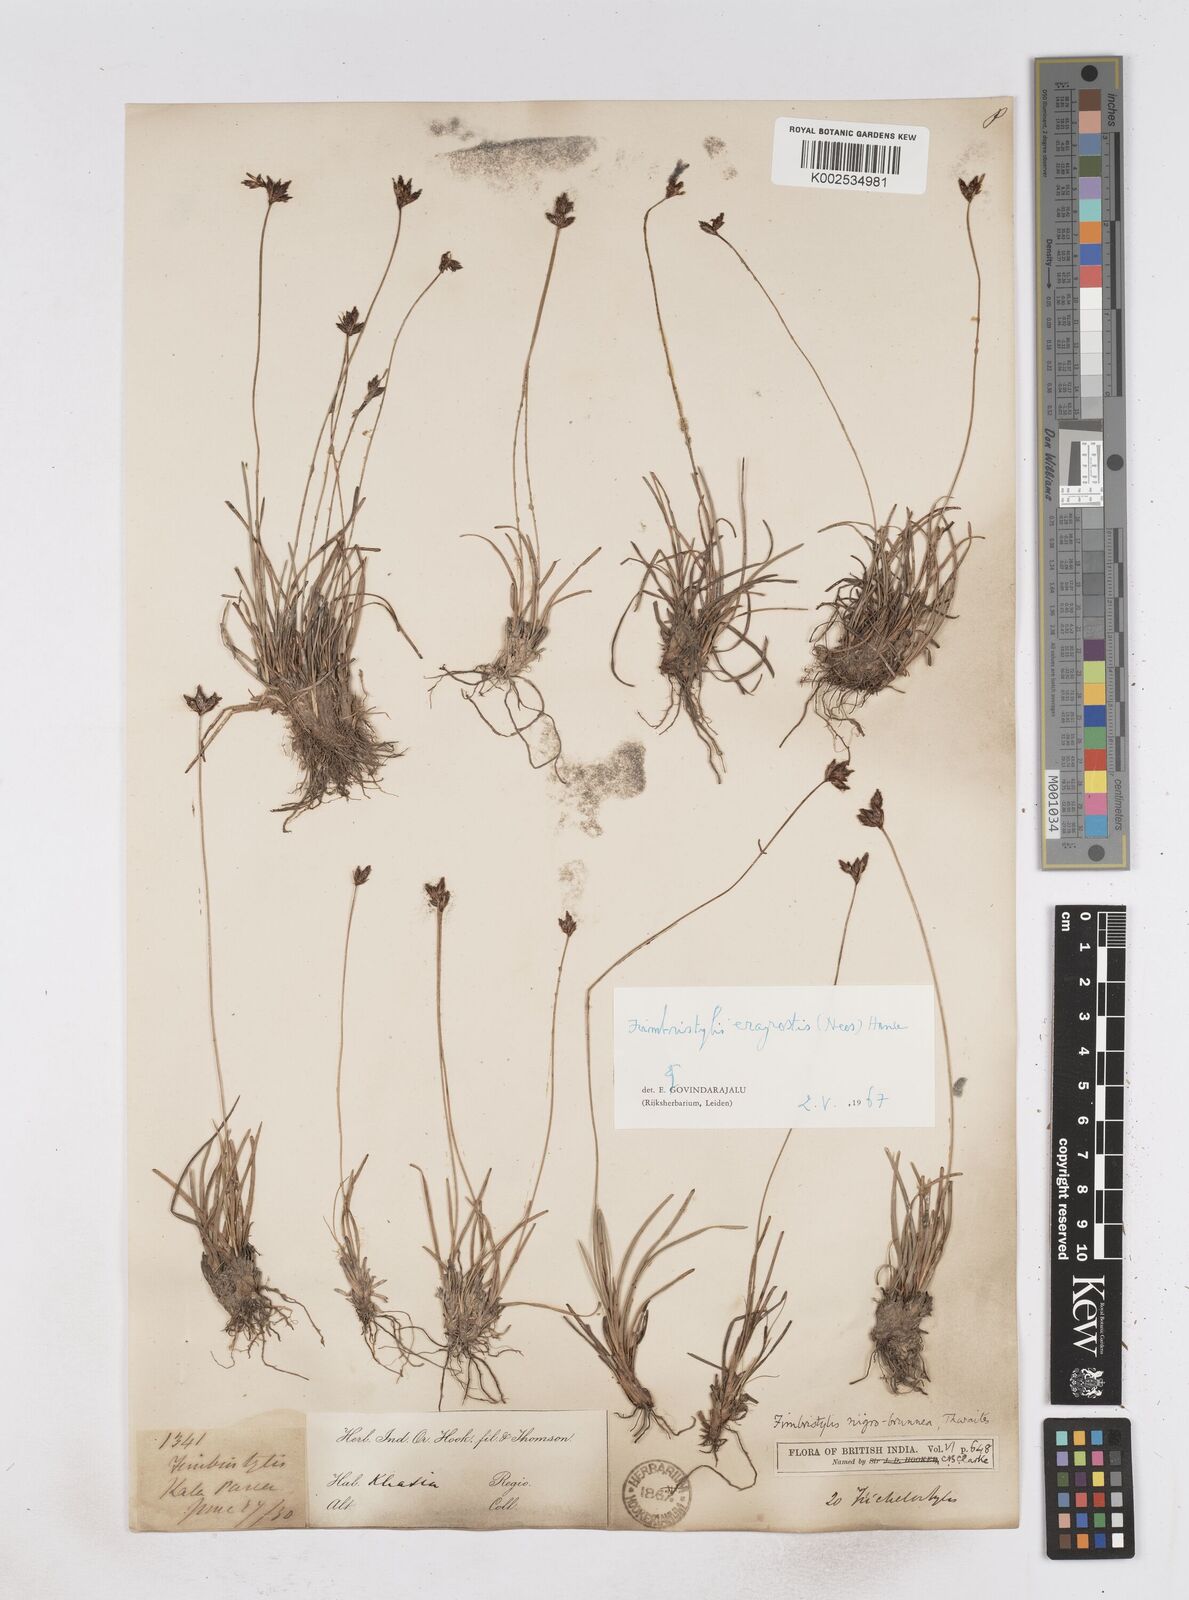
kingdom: Plantae
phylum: Tracheophyta
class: Liliopsida
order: Poales
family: Cyperaceae
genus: Fimbristylis
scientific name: Fimbristylis nigrobrunnea
